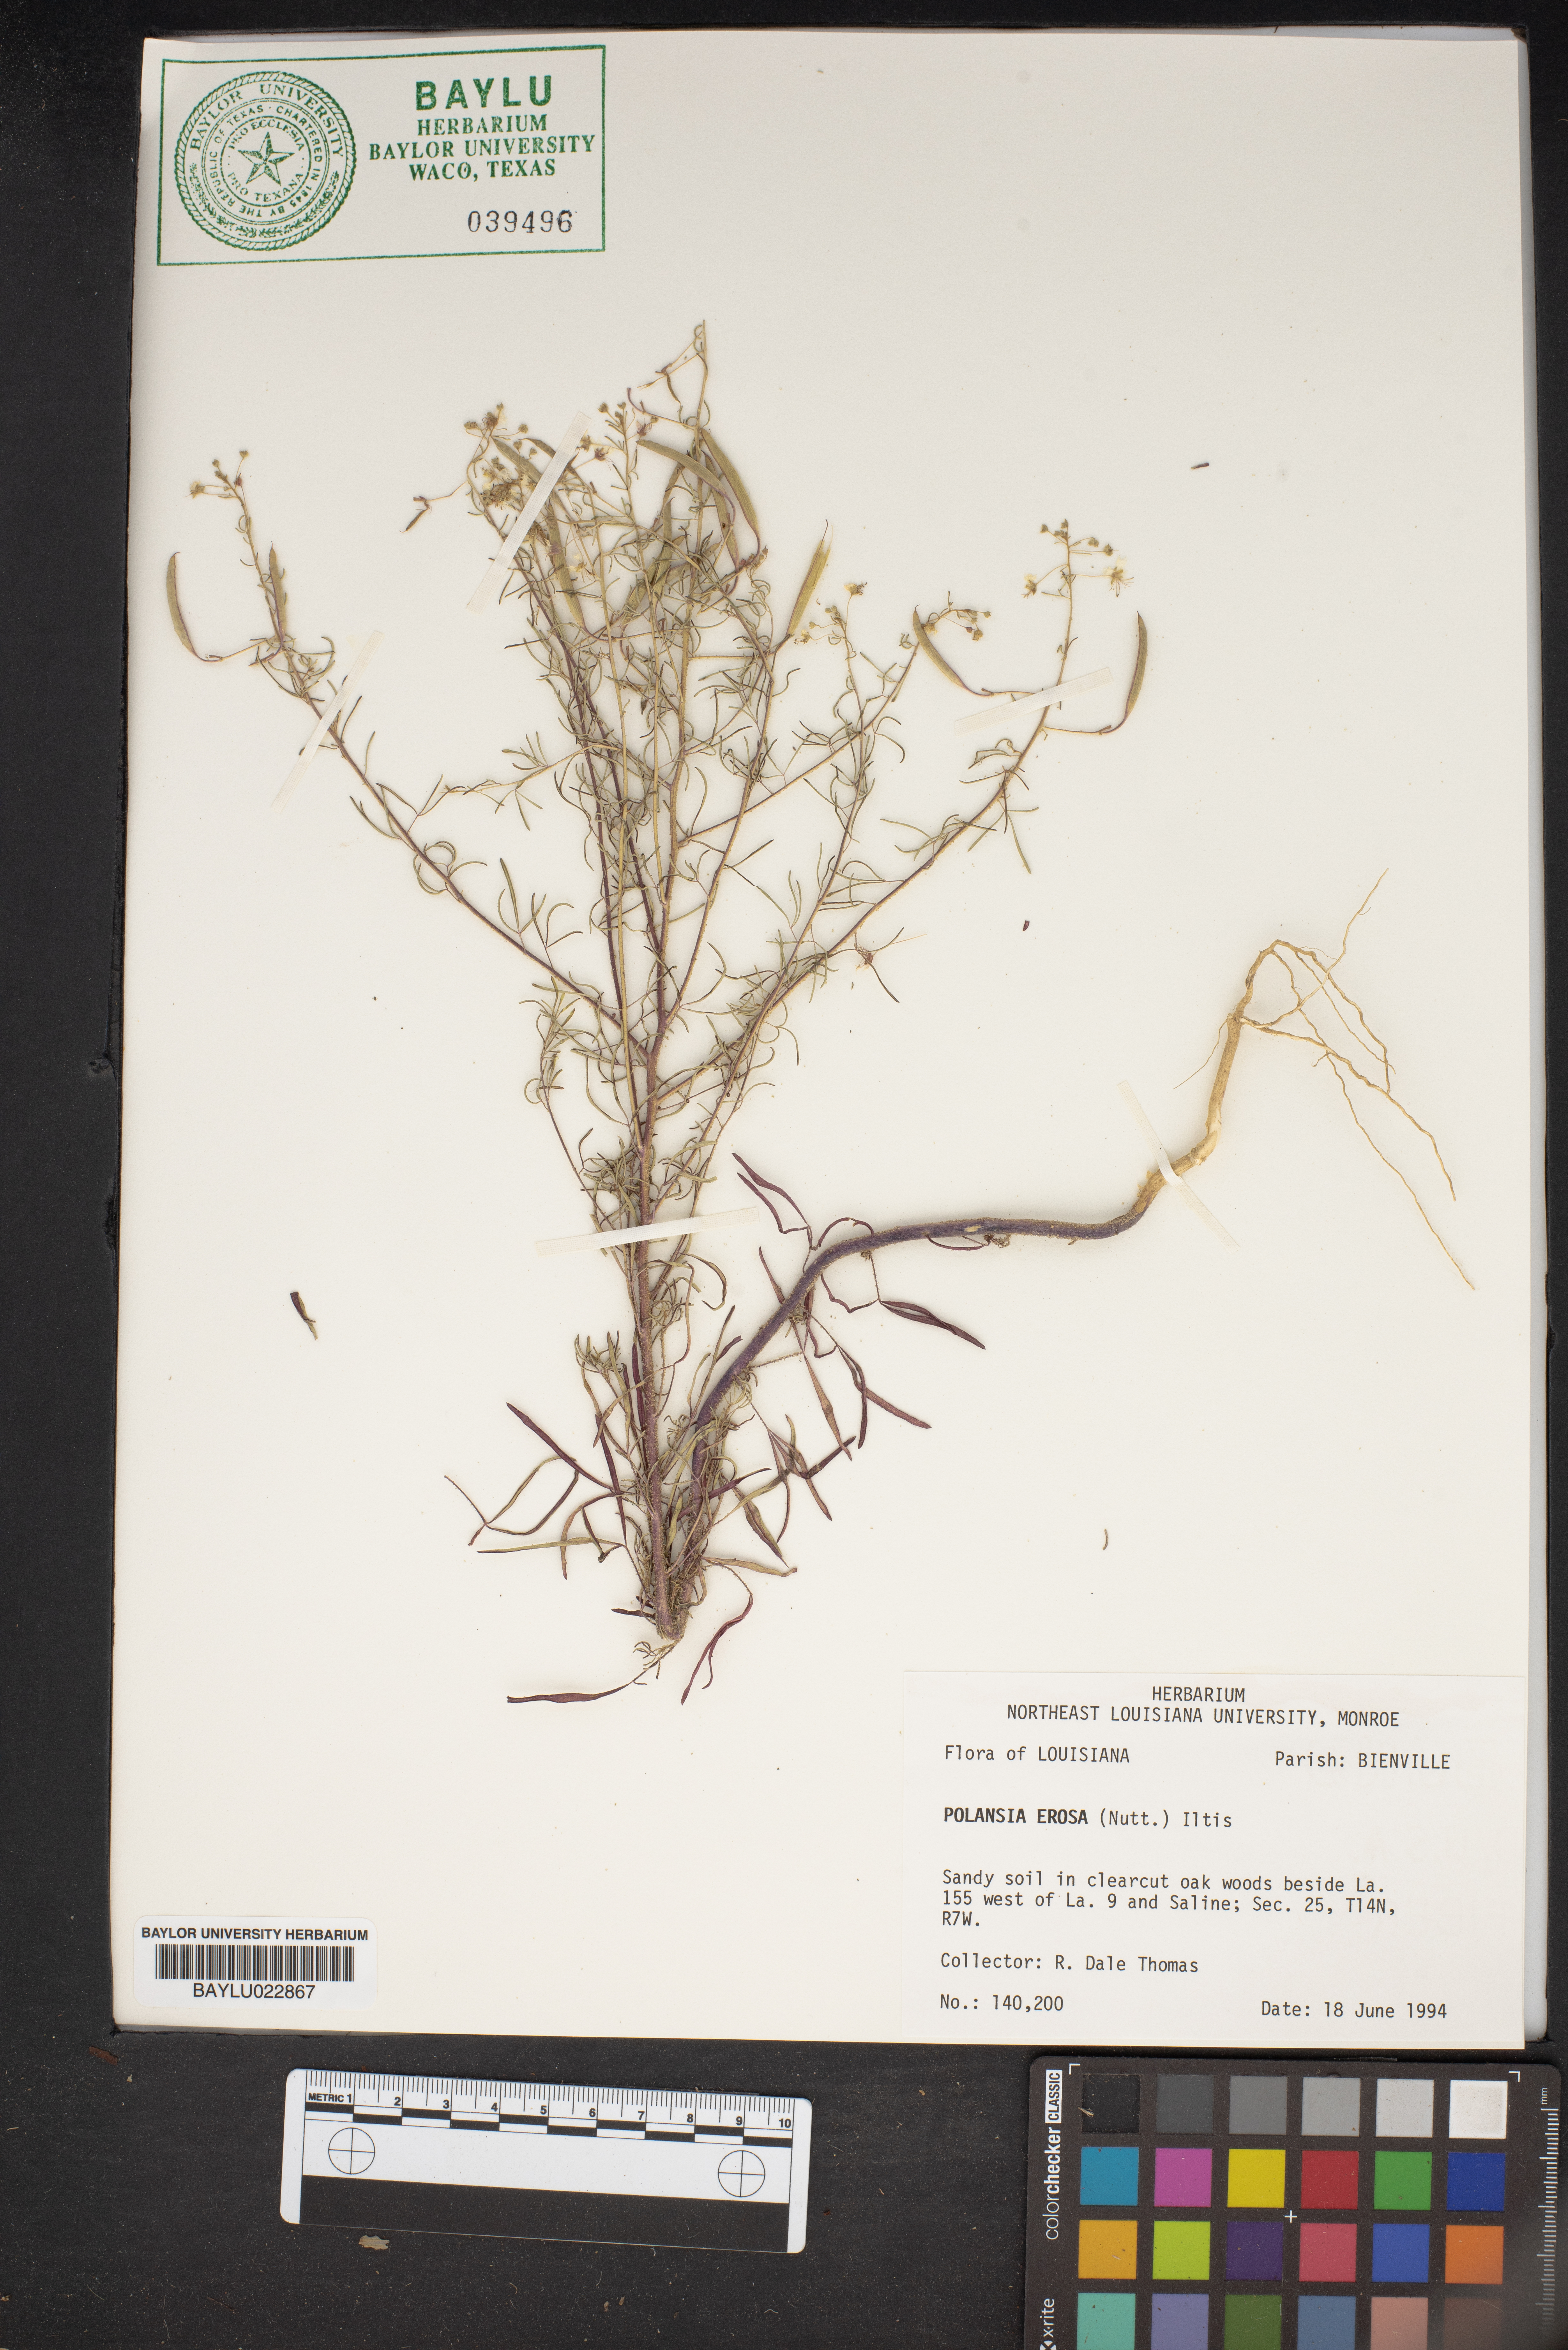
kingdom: Plantae
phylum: Tracheophyta
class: Magnoliopsida
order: Brassicales
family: Cleomaceae
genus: Polanisia
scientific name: Polanisia erosa
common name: Large clammyweed
